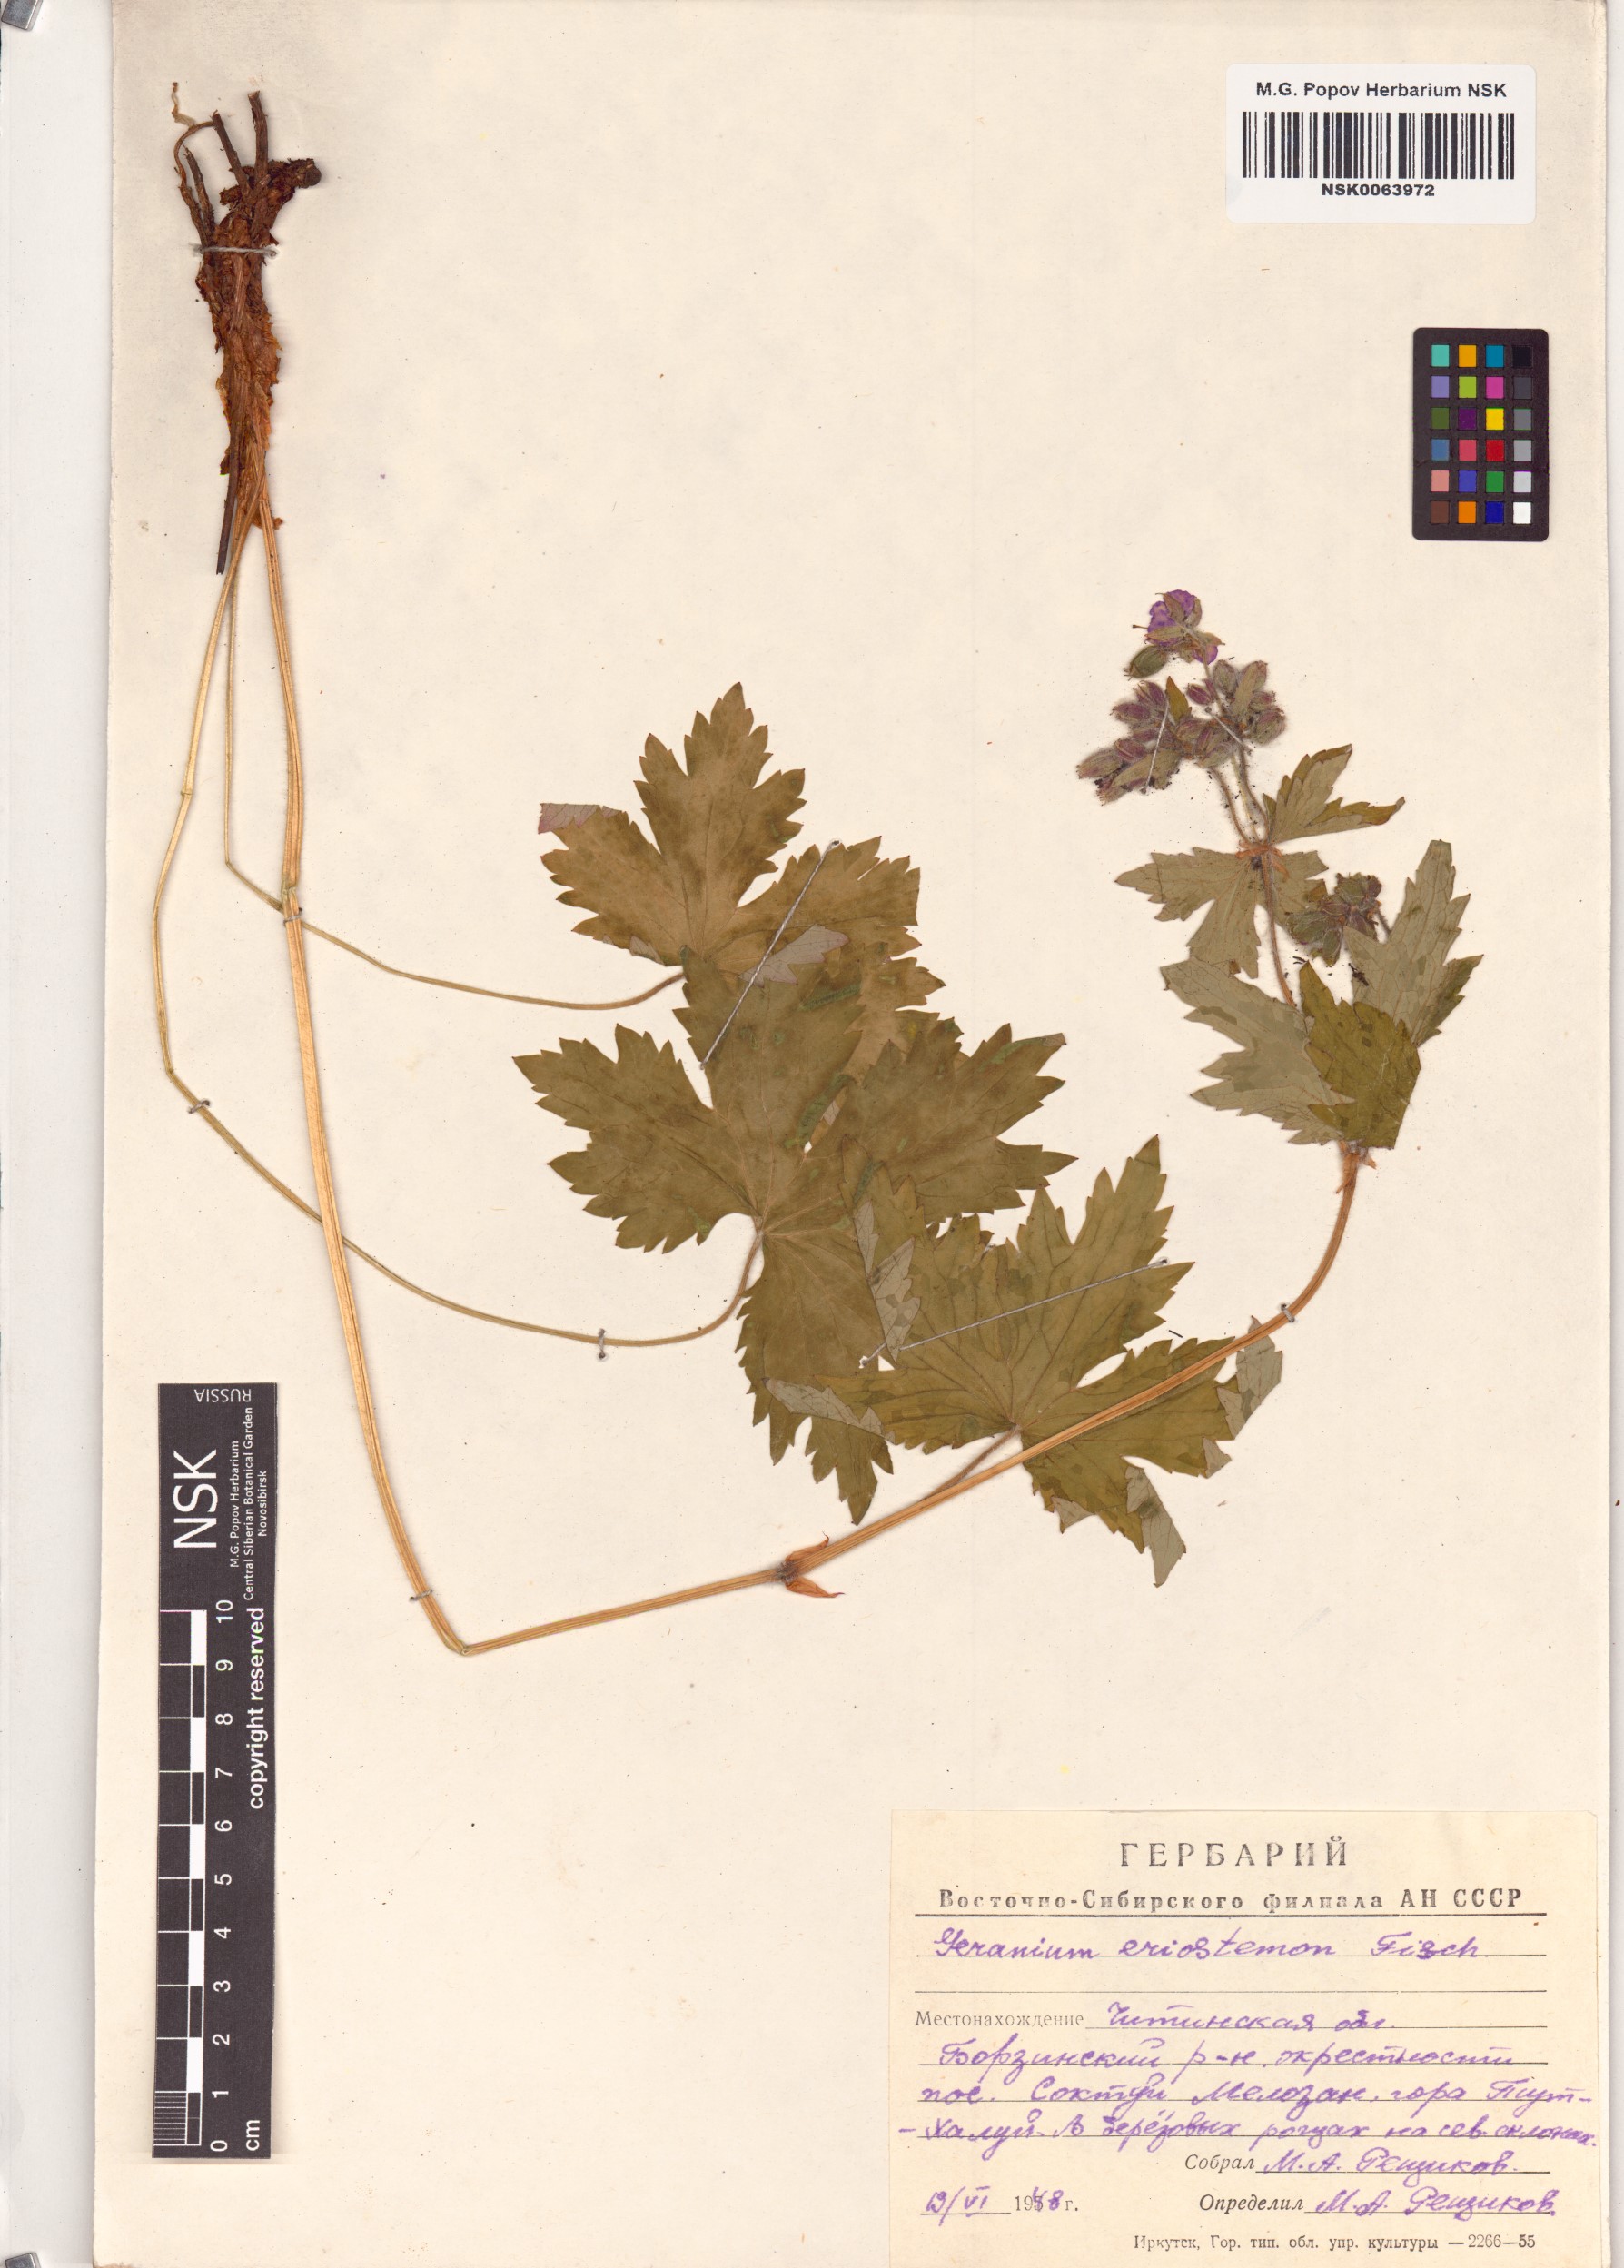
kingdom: Plantae
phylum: Tracheophyta
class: Magnoliopsida
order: Geraniales
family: Geraniaceae
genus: Geranium
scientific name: Geranium platyanthum
